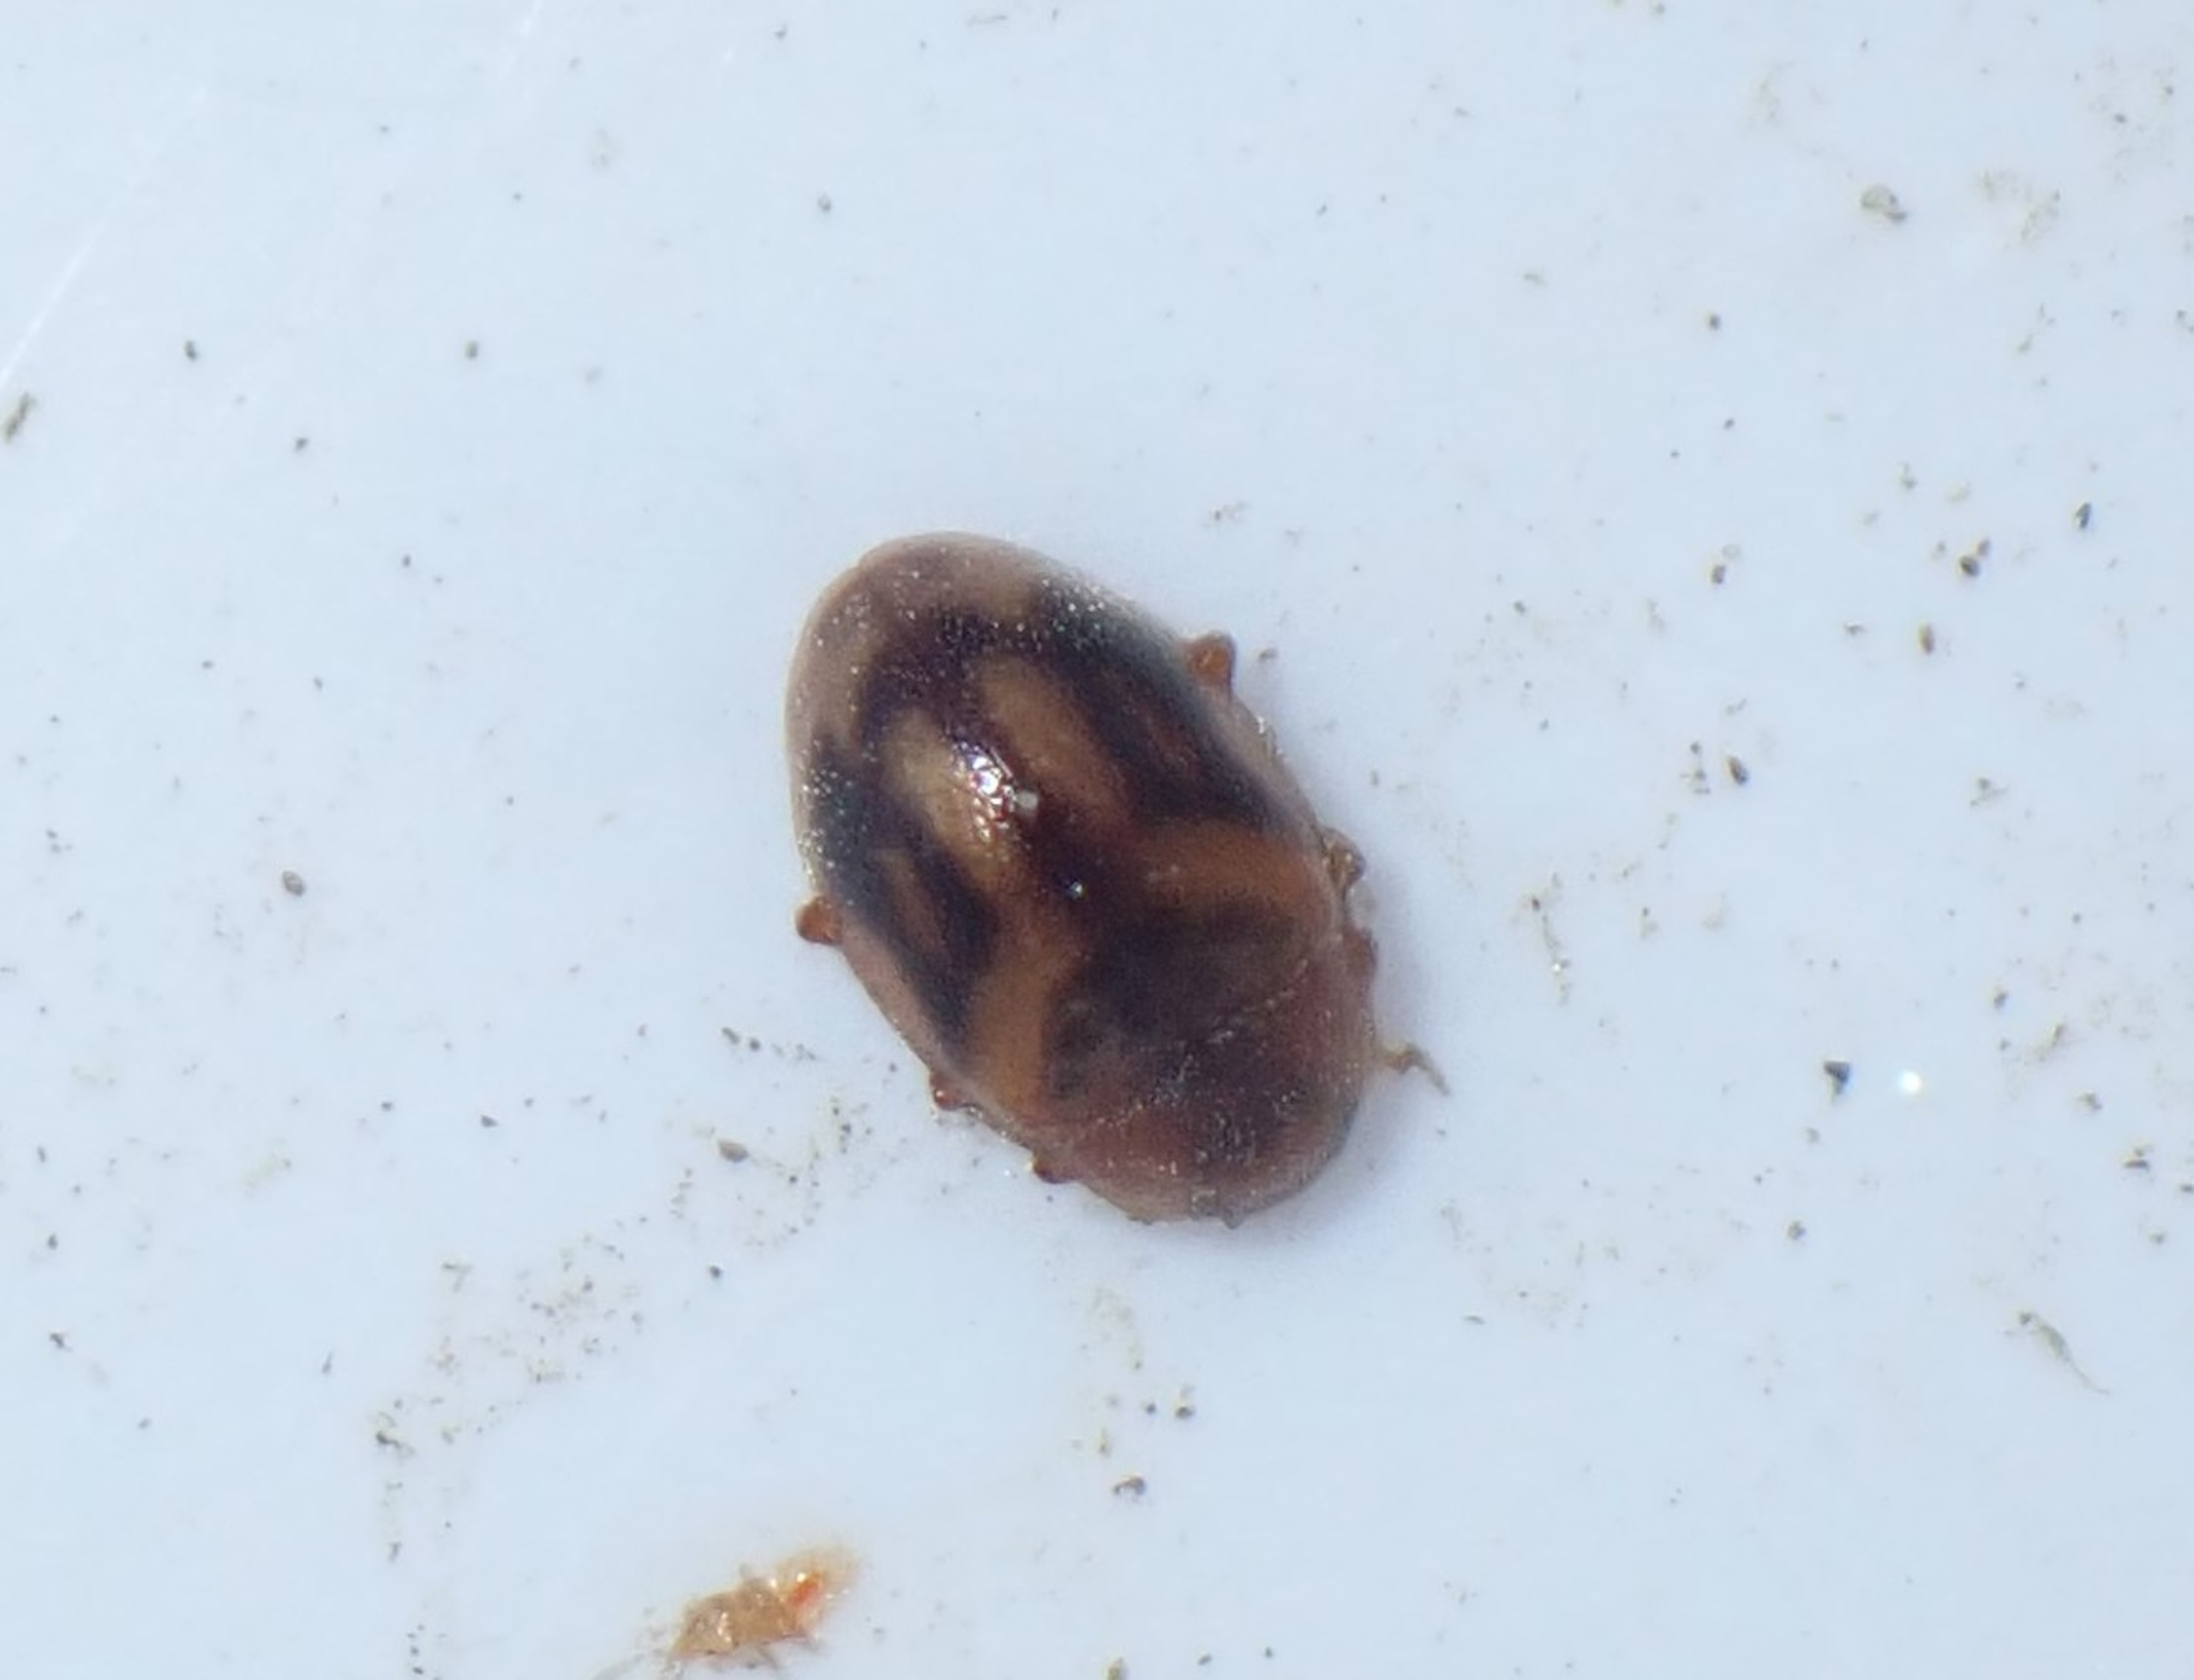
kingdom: Animalia
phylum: Arthropoda
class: Insecta
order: Coleoptera
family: Coccinellidae
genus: Rhyzobius
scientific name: Rhyzobius chrysomeloides
